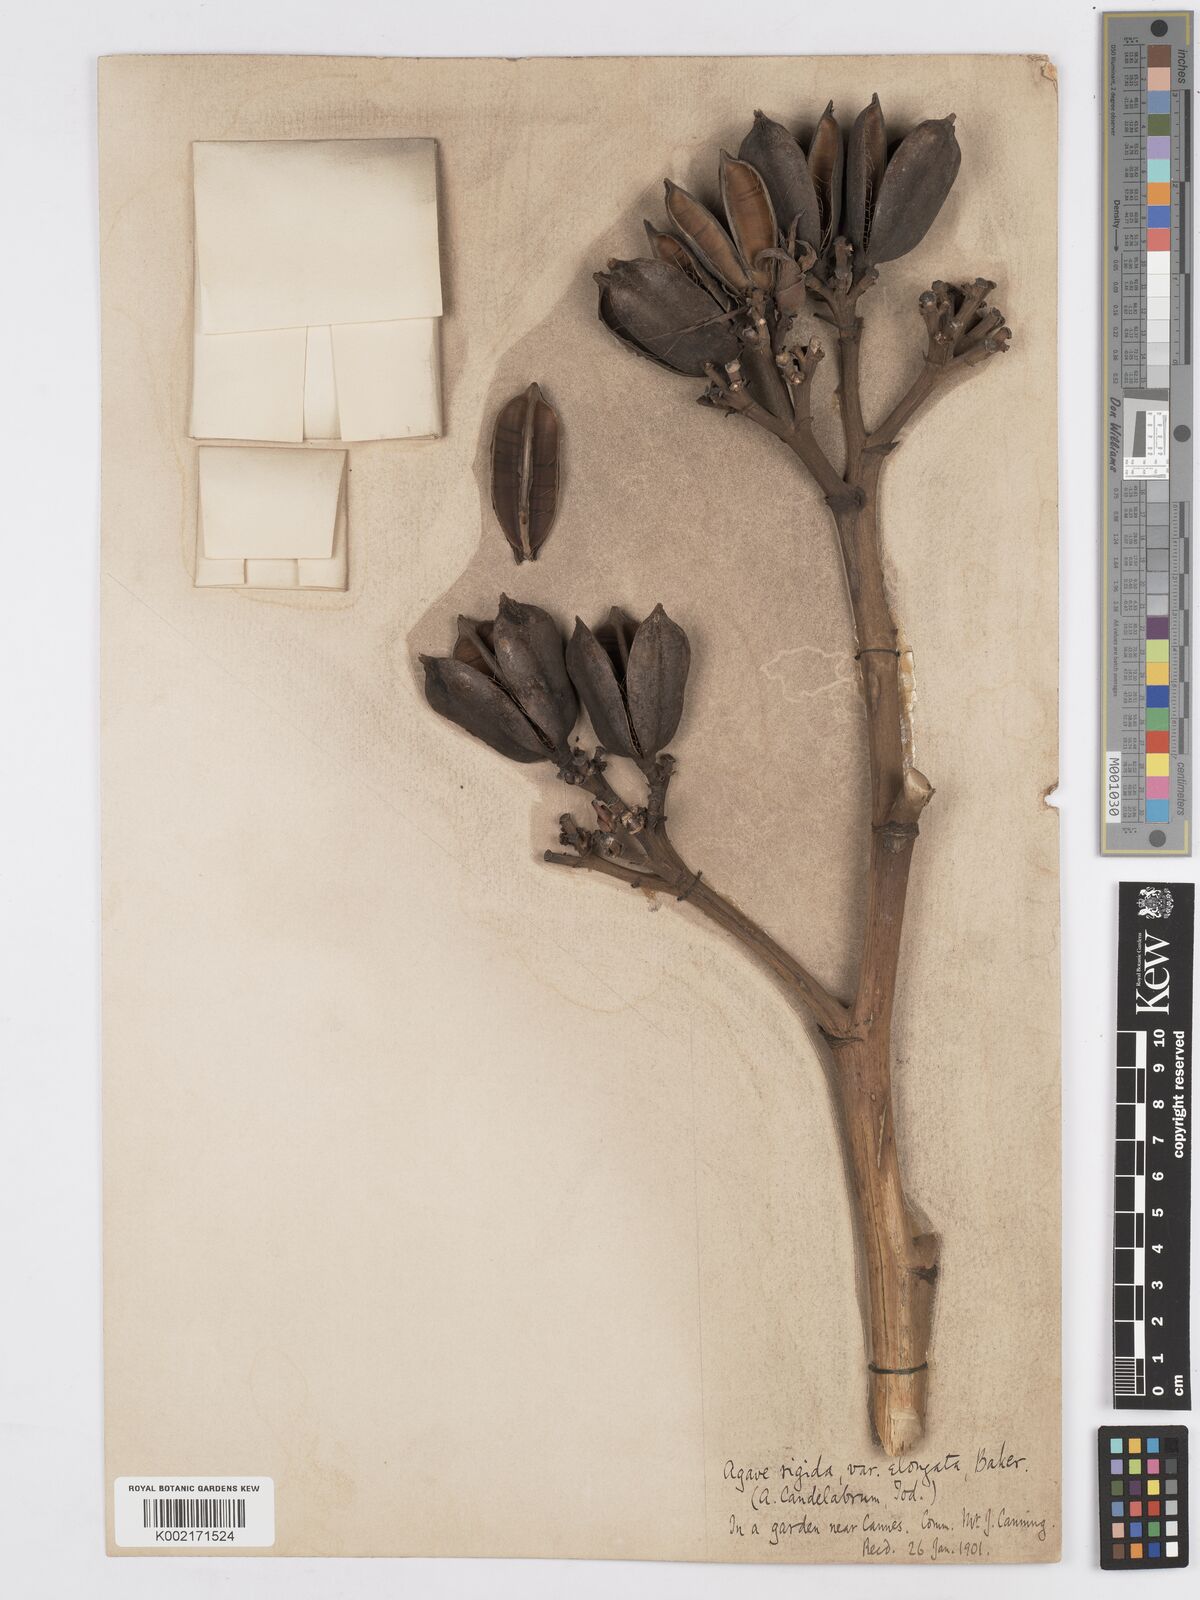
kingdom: Plantae
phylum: Tracheophyta
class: Liliopsida
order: Asparagales
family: Asparagaceae
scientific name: Asparagaceae
